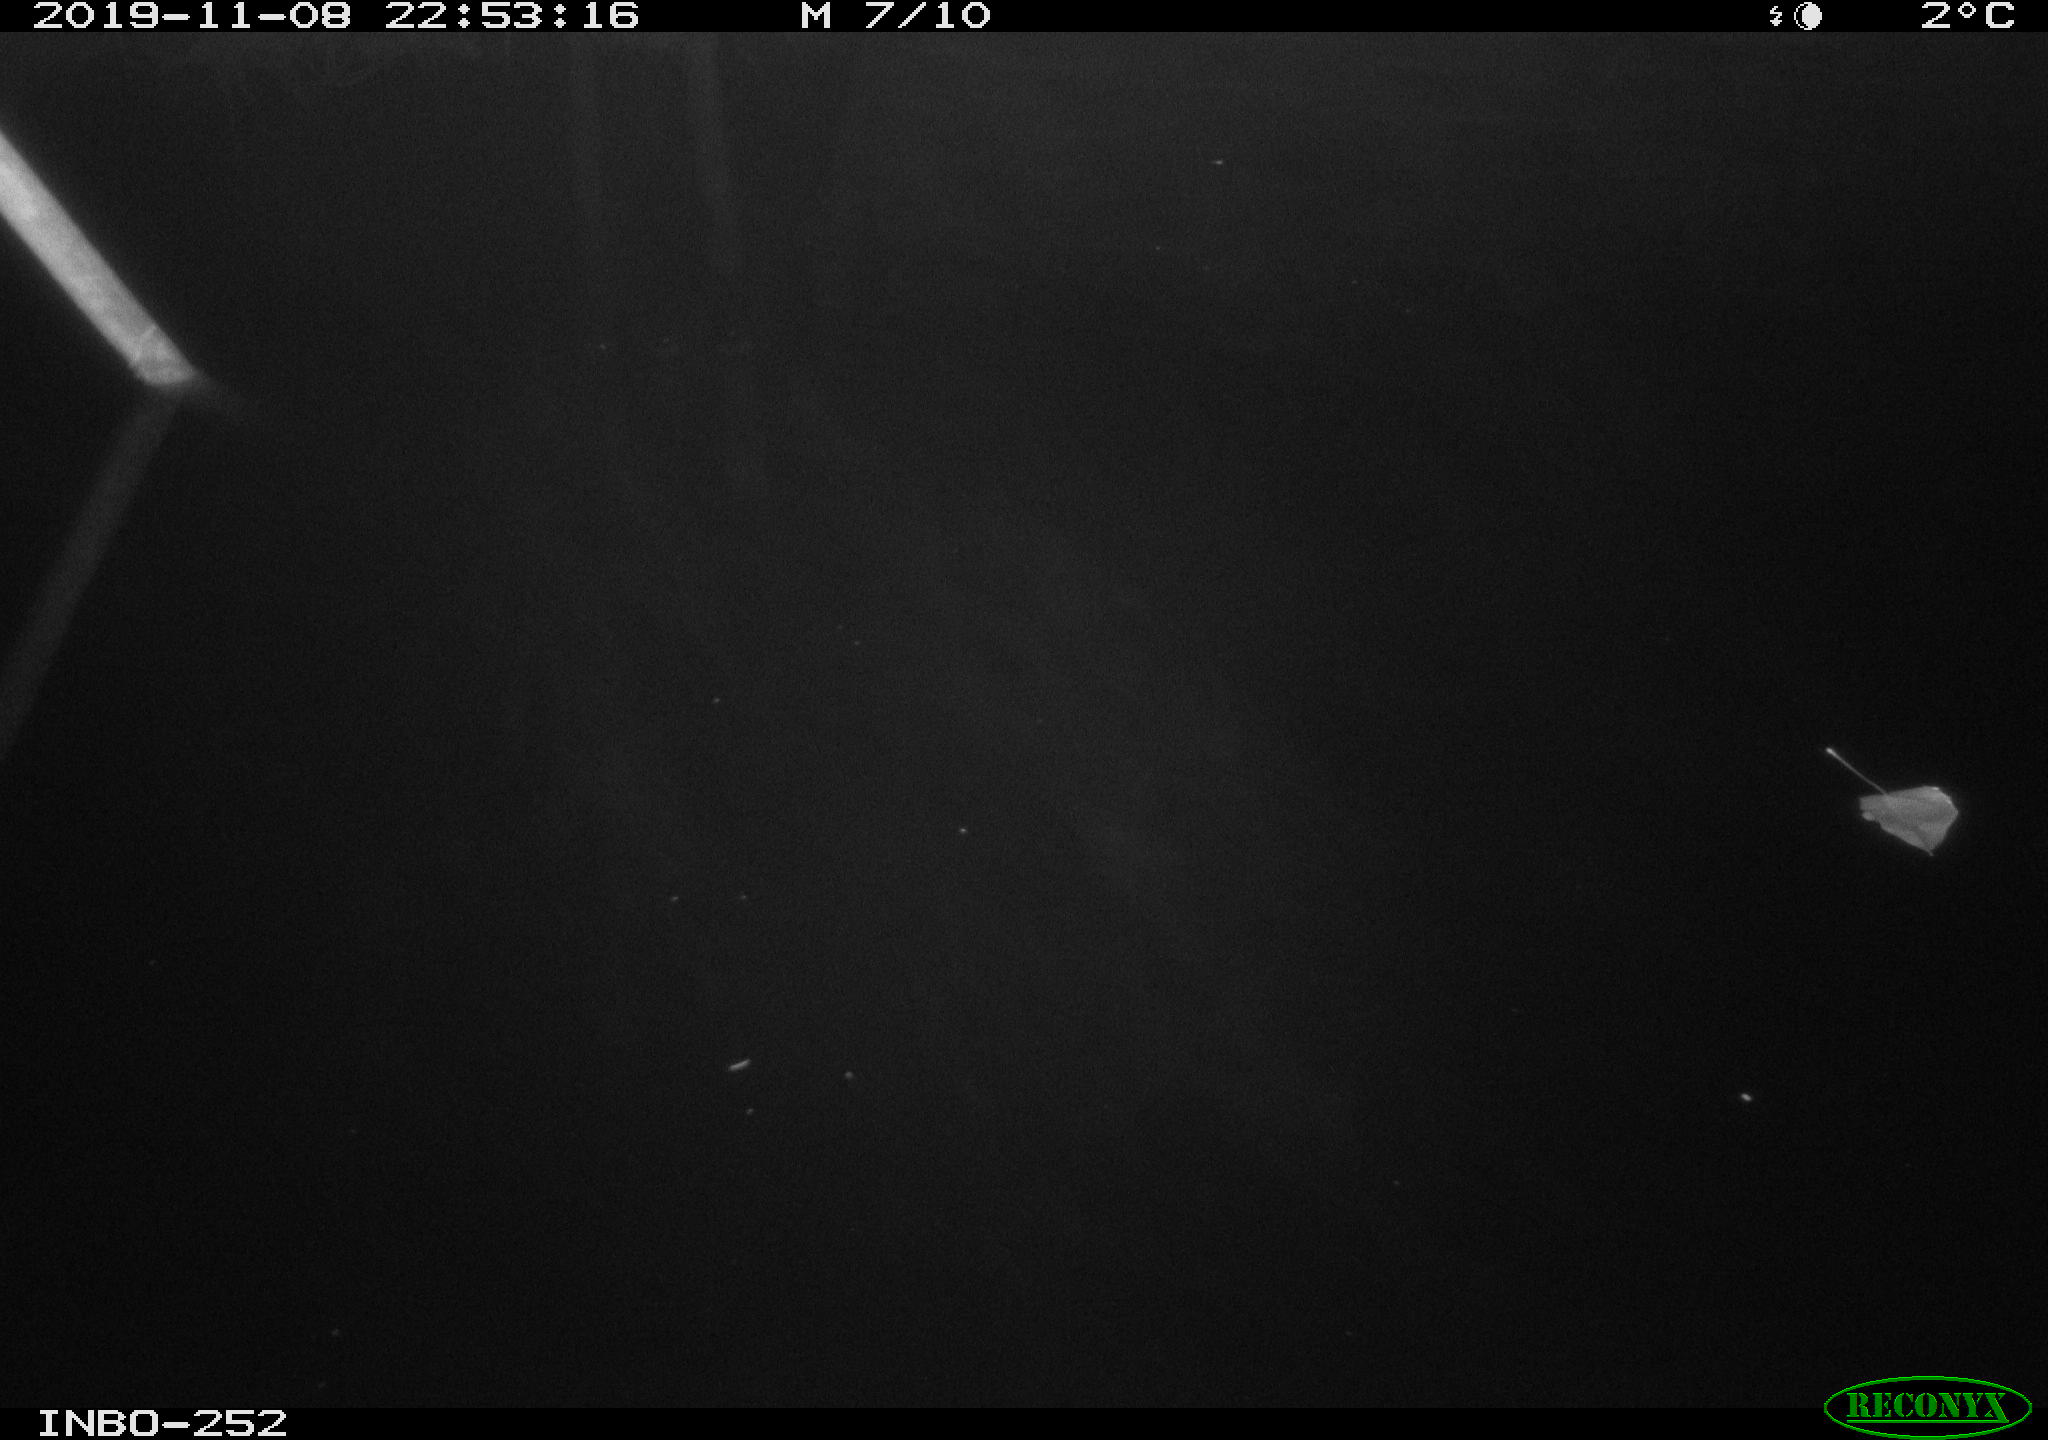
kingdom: Animalia
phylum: Chordata
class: Aves
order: Anseriformes
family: Anatidae
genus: Anas
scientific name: Anas platyrhynchos
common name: Mallard
